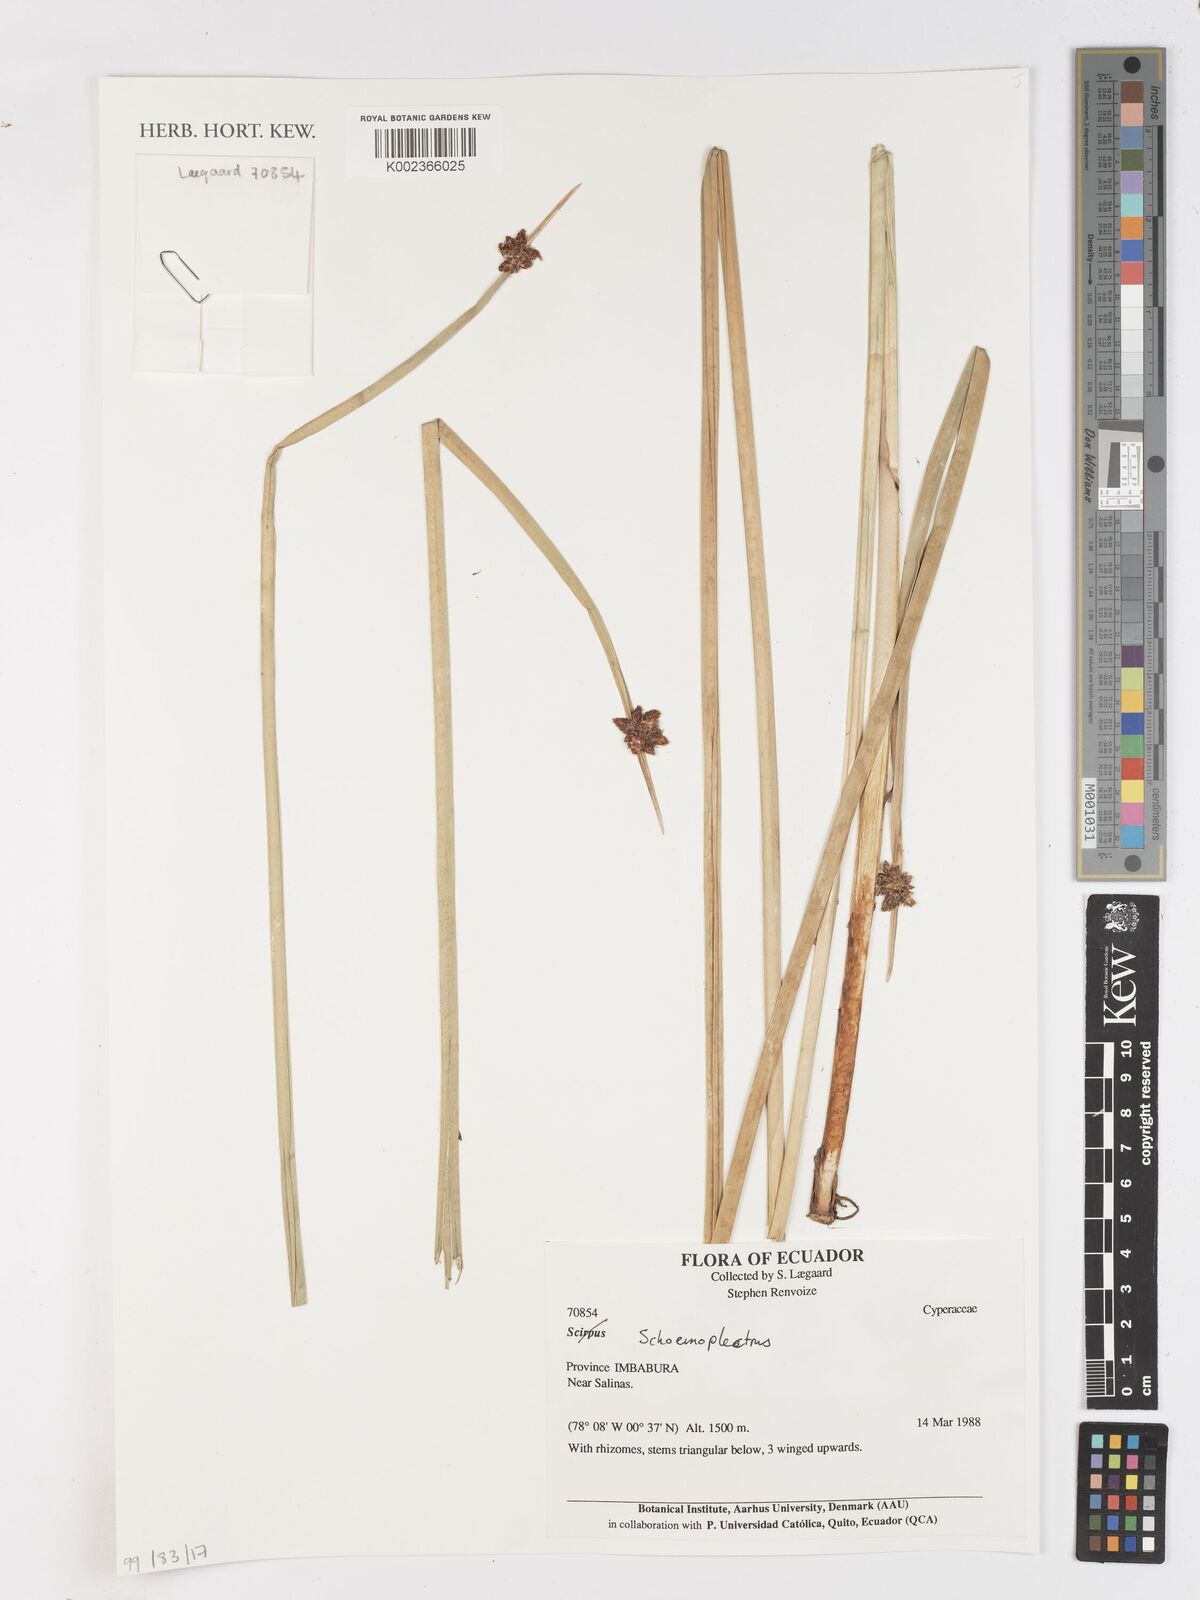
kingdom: Plantae
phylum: Tracheophyta
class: Liliopsida
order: Poales
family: Cyperaceae
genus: Schoenoplectus
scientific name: Schoenoplectus
